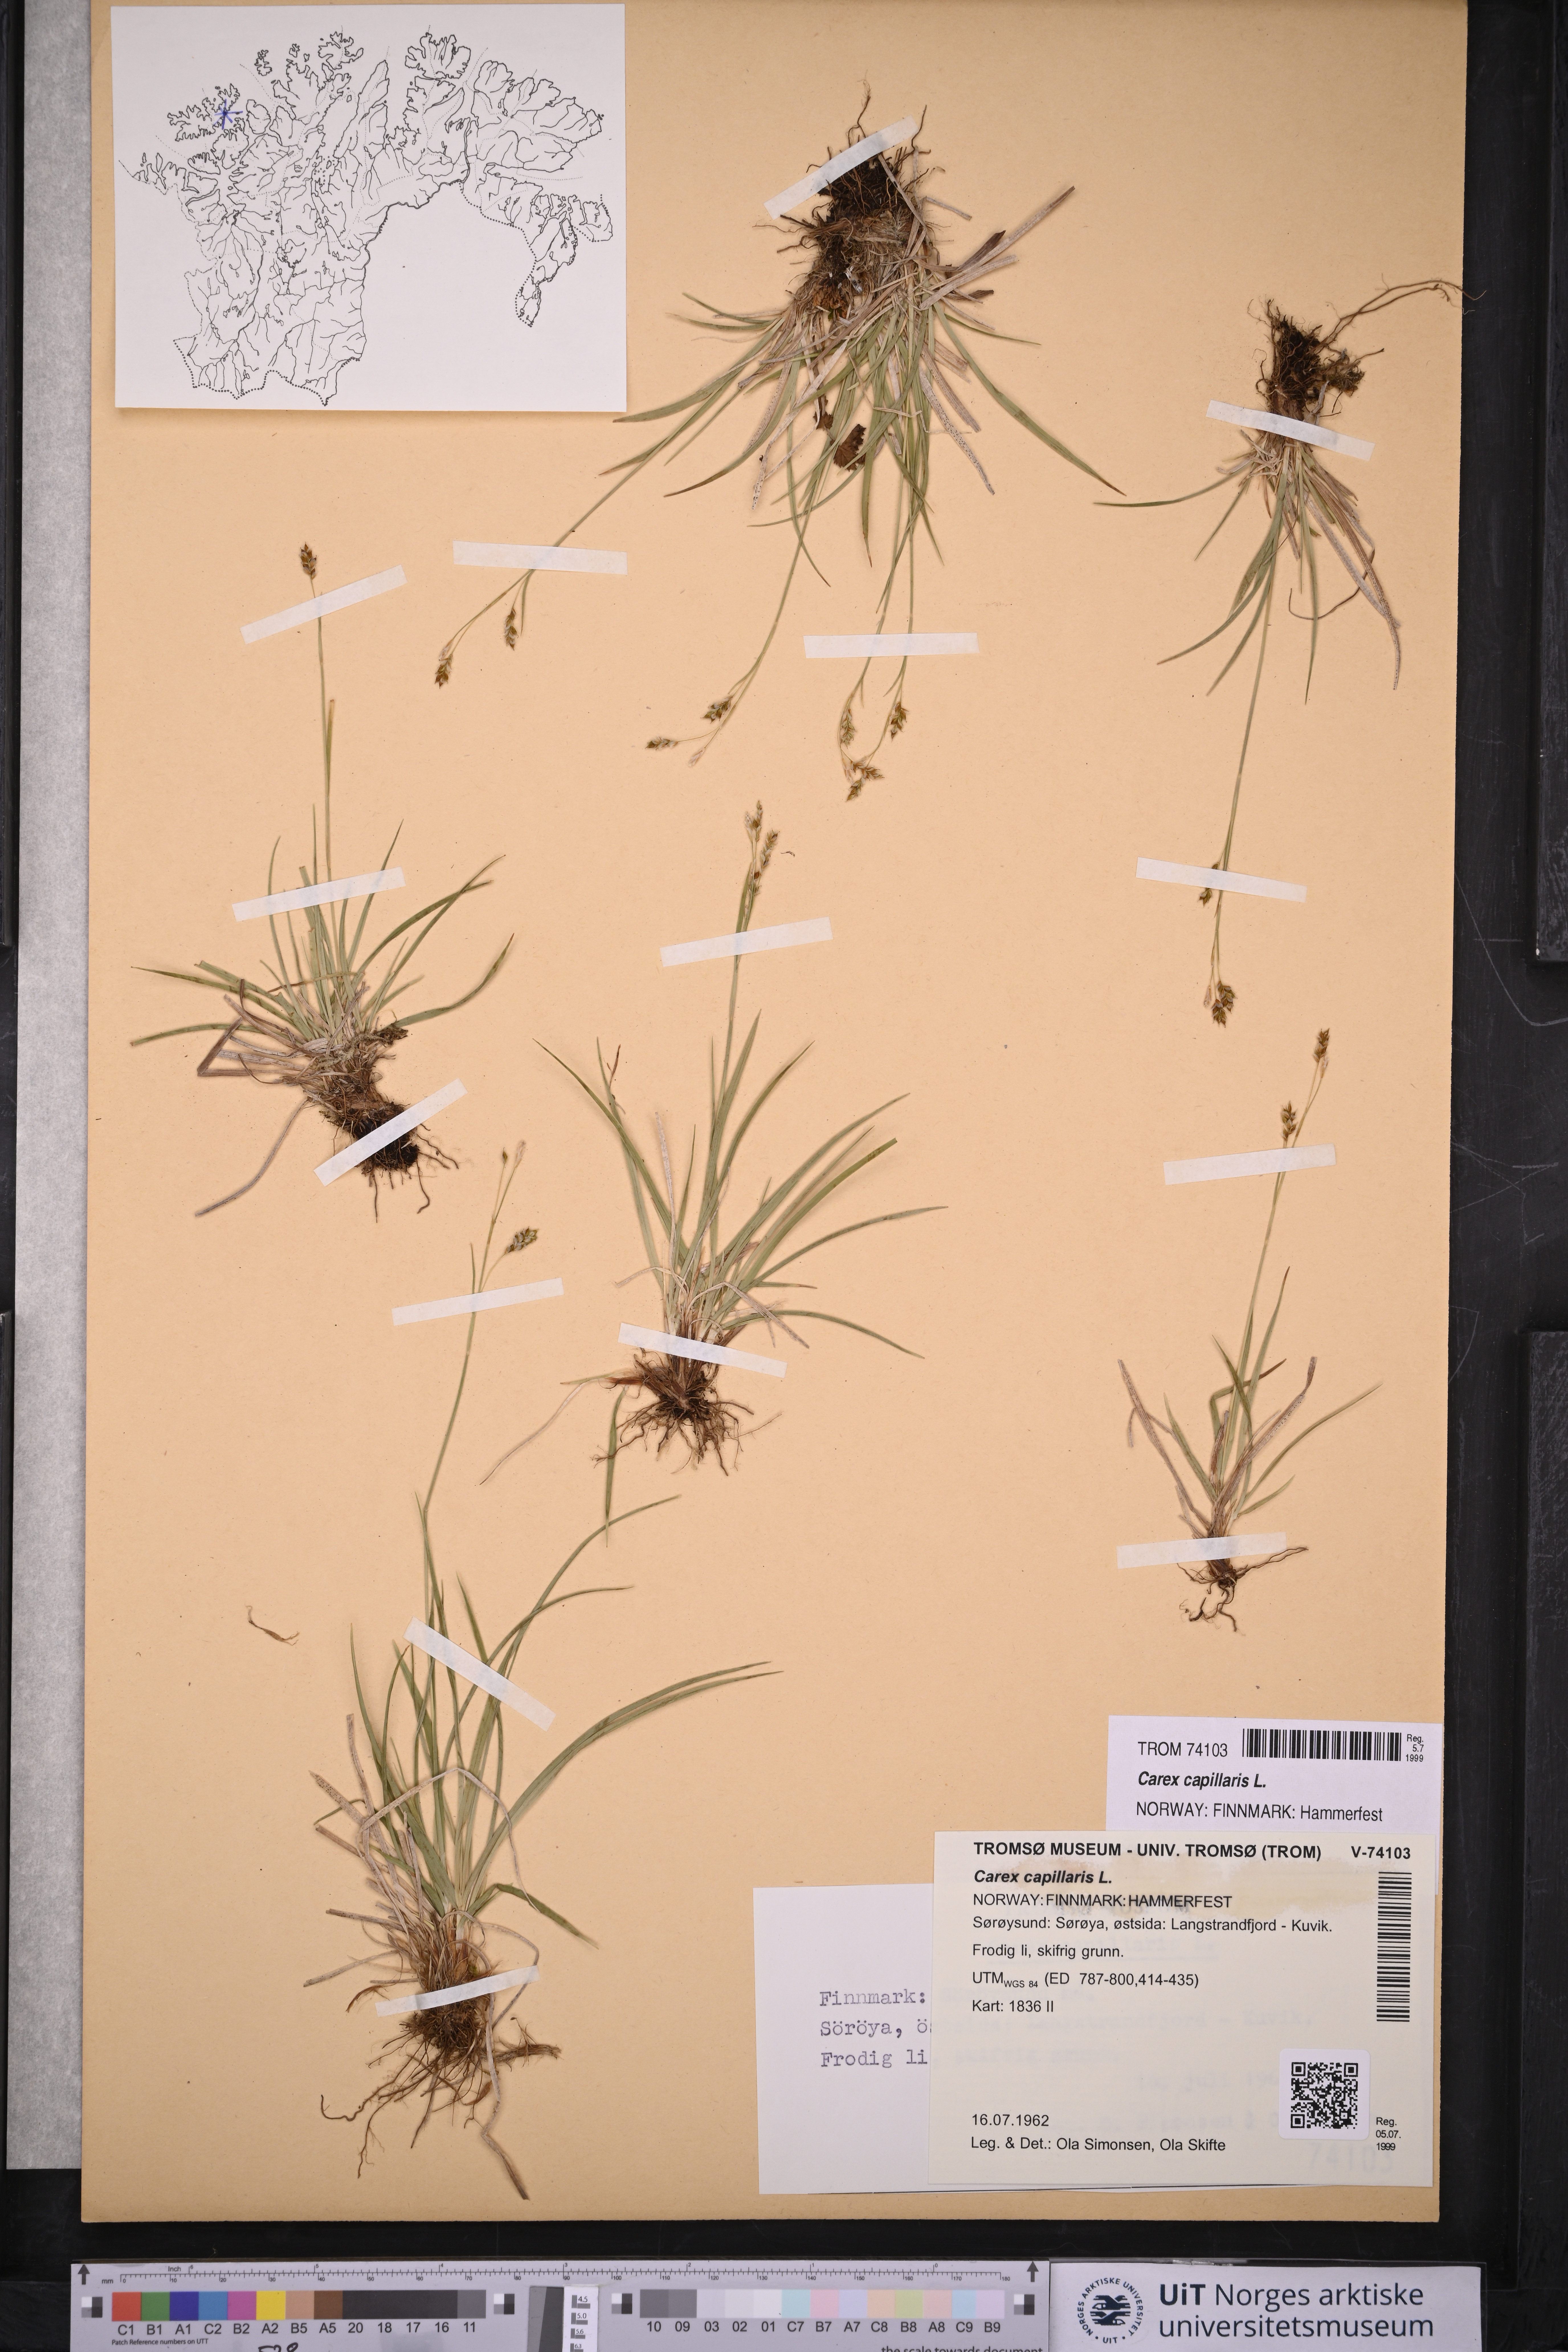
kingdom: Plantae
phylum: Tracheophyta
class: Liliopsida
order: Poales
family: Cyperaceae
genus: Carex
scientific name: Carex capillaris
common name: Hair sedge
